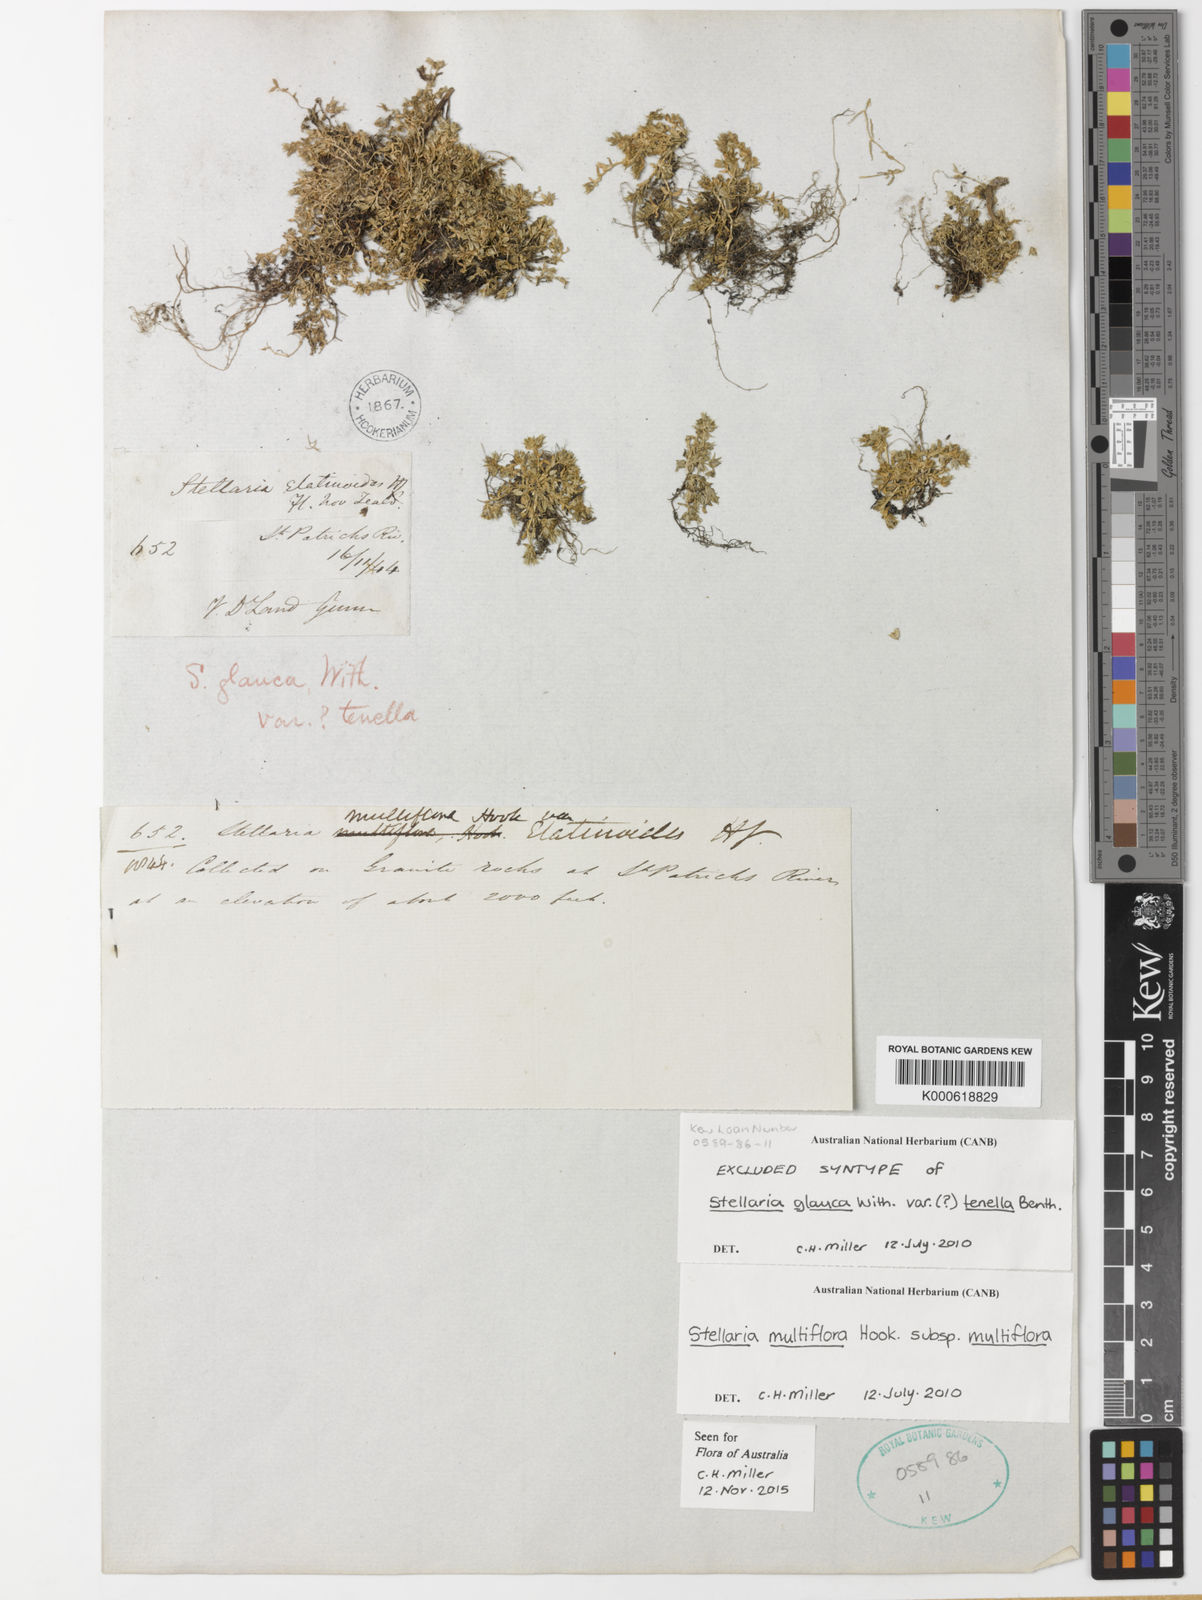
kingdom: Plantae
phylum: Tracheophyta
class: Magnoliopsida
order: Caryophyllales
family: Caryophyllaceae
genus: Stellaria
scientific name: Stellaria multiflora
